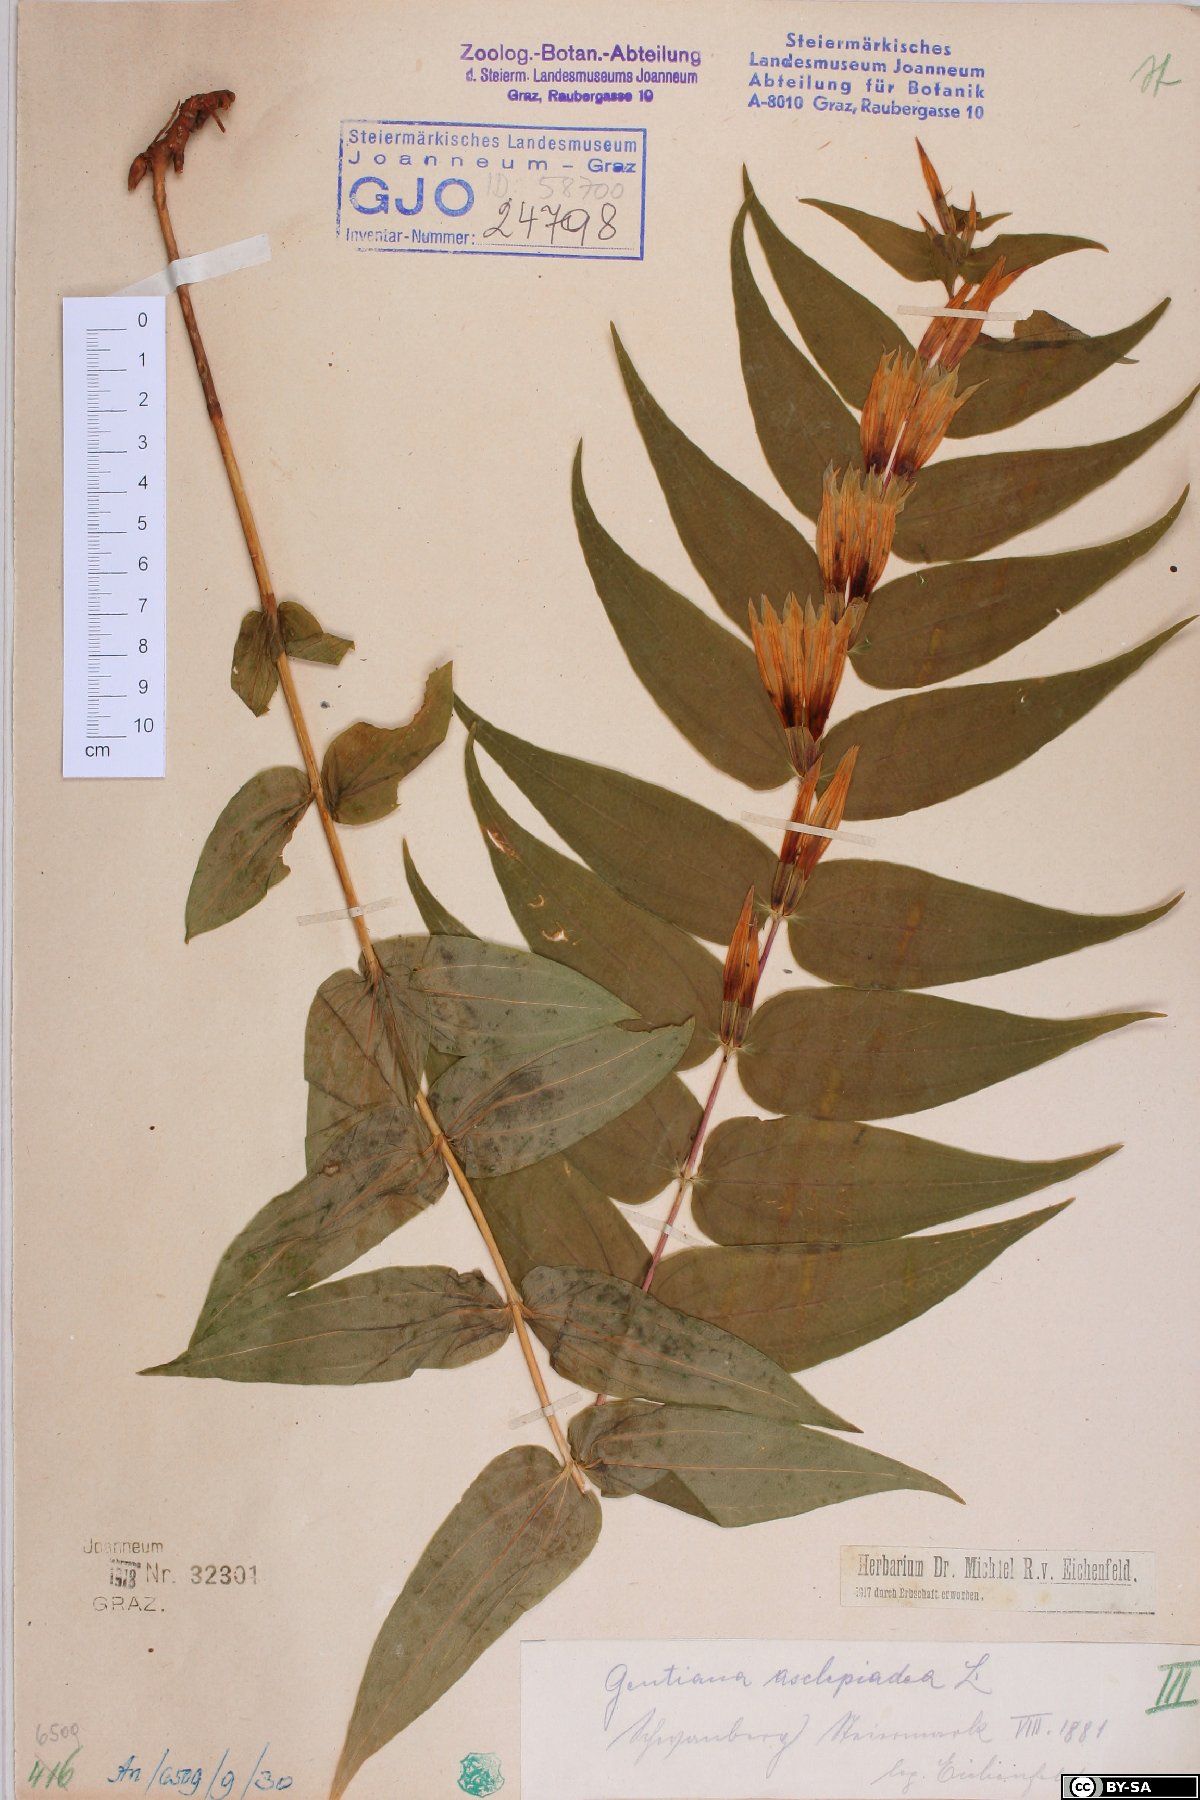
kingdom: Plantae
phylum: Tracheophyta
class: Magnoliopsida
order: Gentianales
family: Gentianaceae
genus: Gentiana
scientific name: Gentiana asclepiadea
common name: Willow gentian
